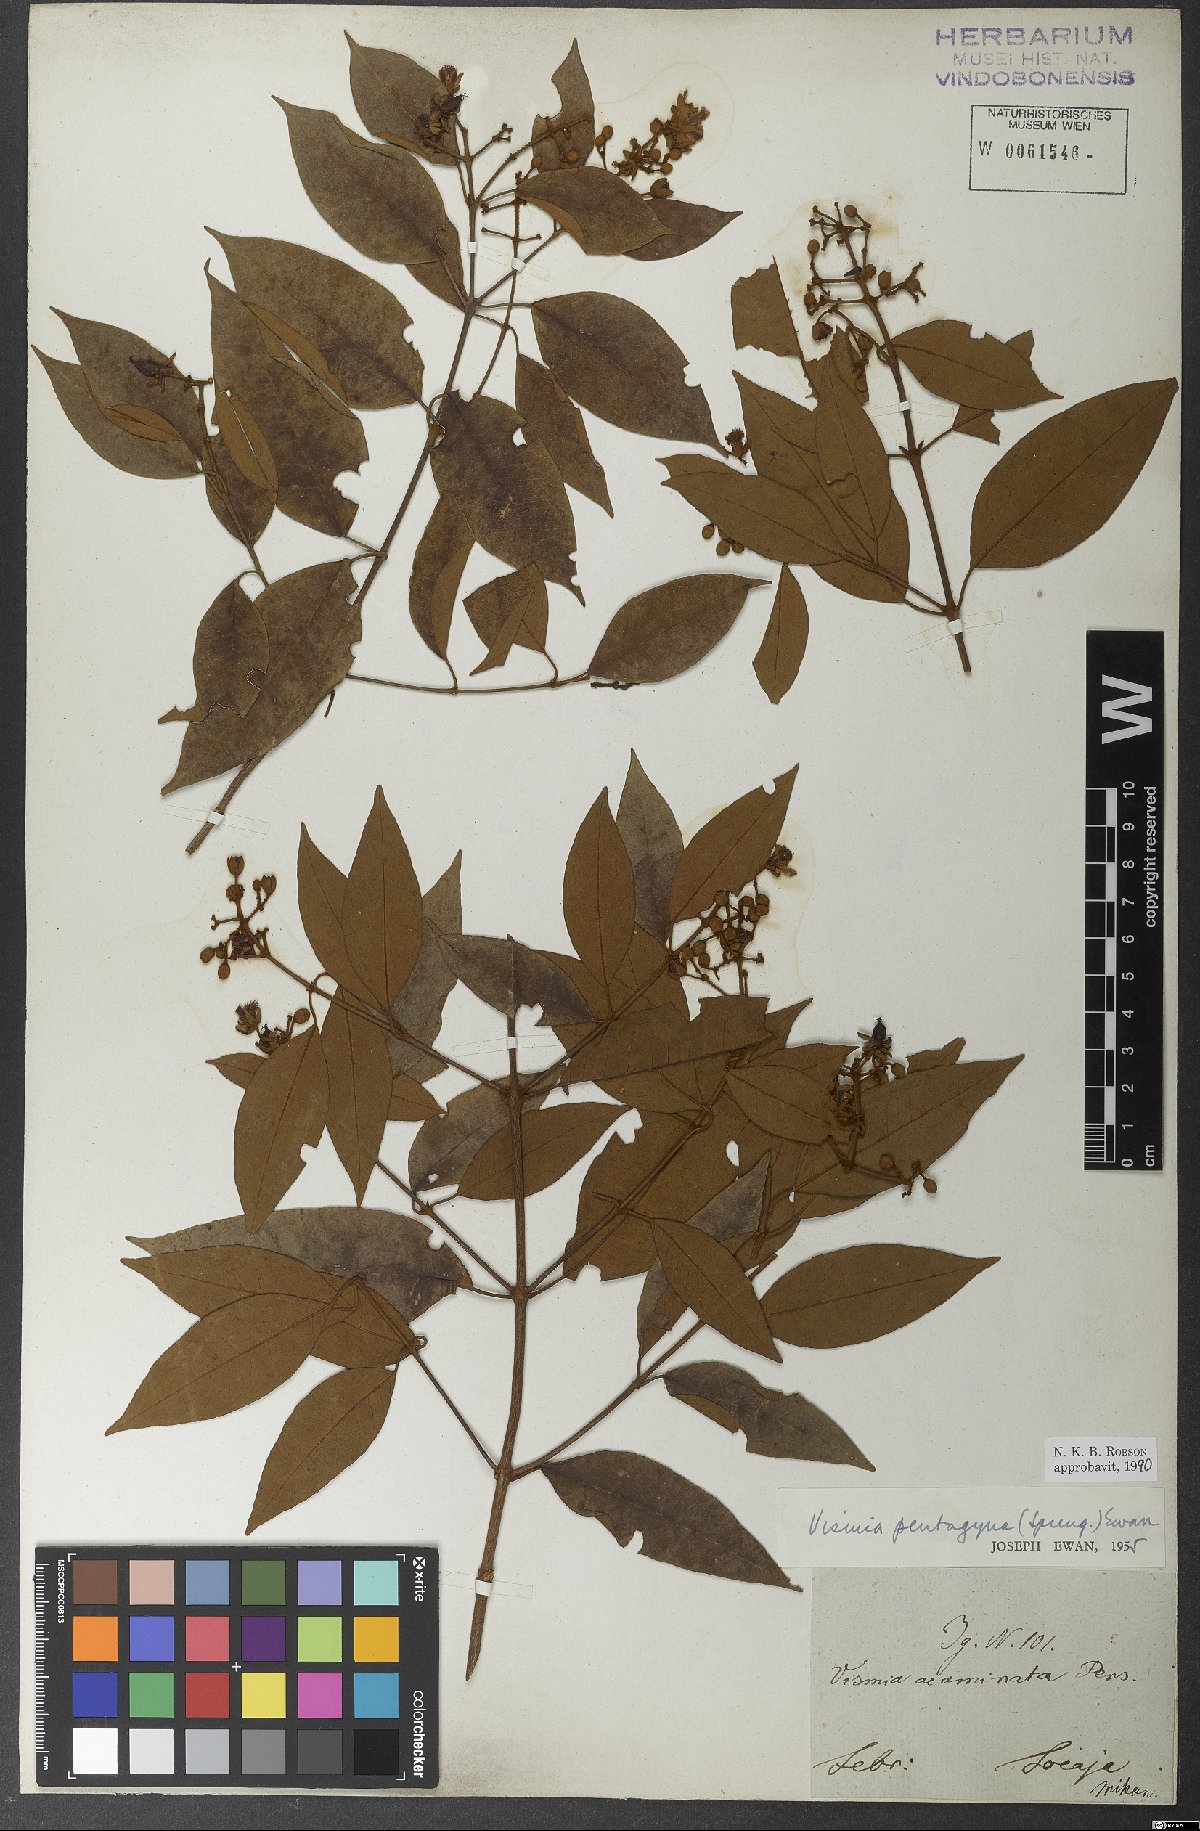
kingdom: Plantae
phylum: Tracheophyta
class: Magnoliopsida
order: Malpighiales
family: Hypericaceae
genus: Vismia
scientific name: Vismia pentagyna
